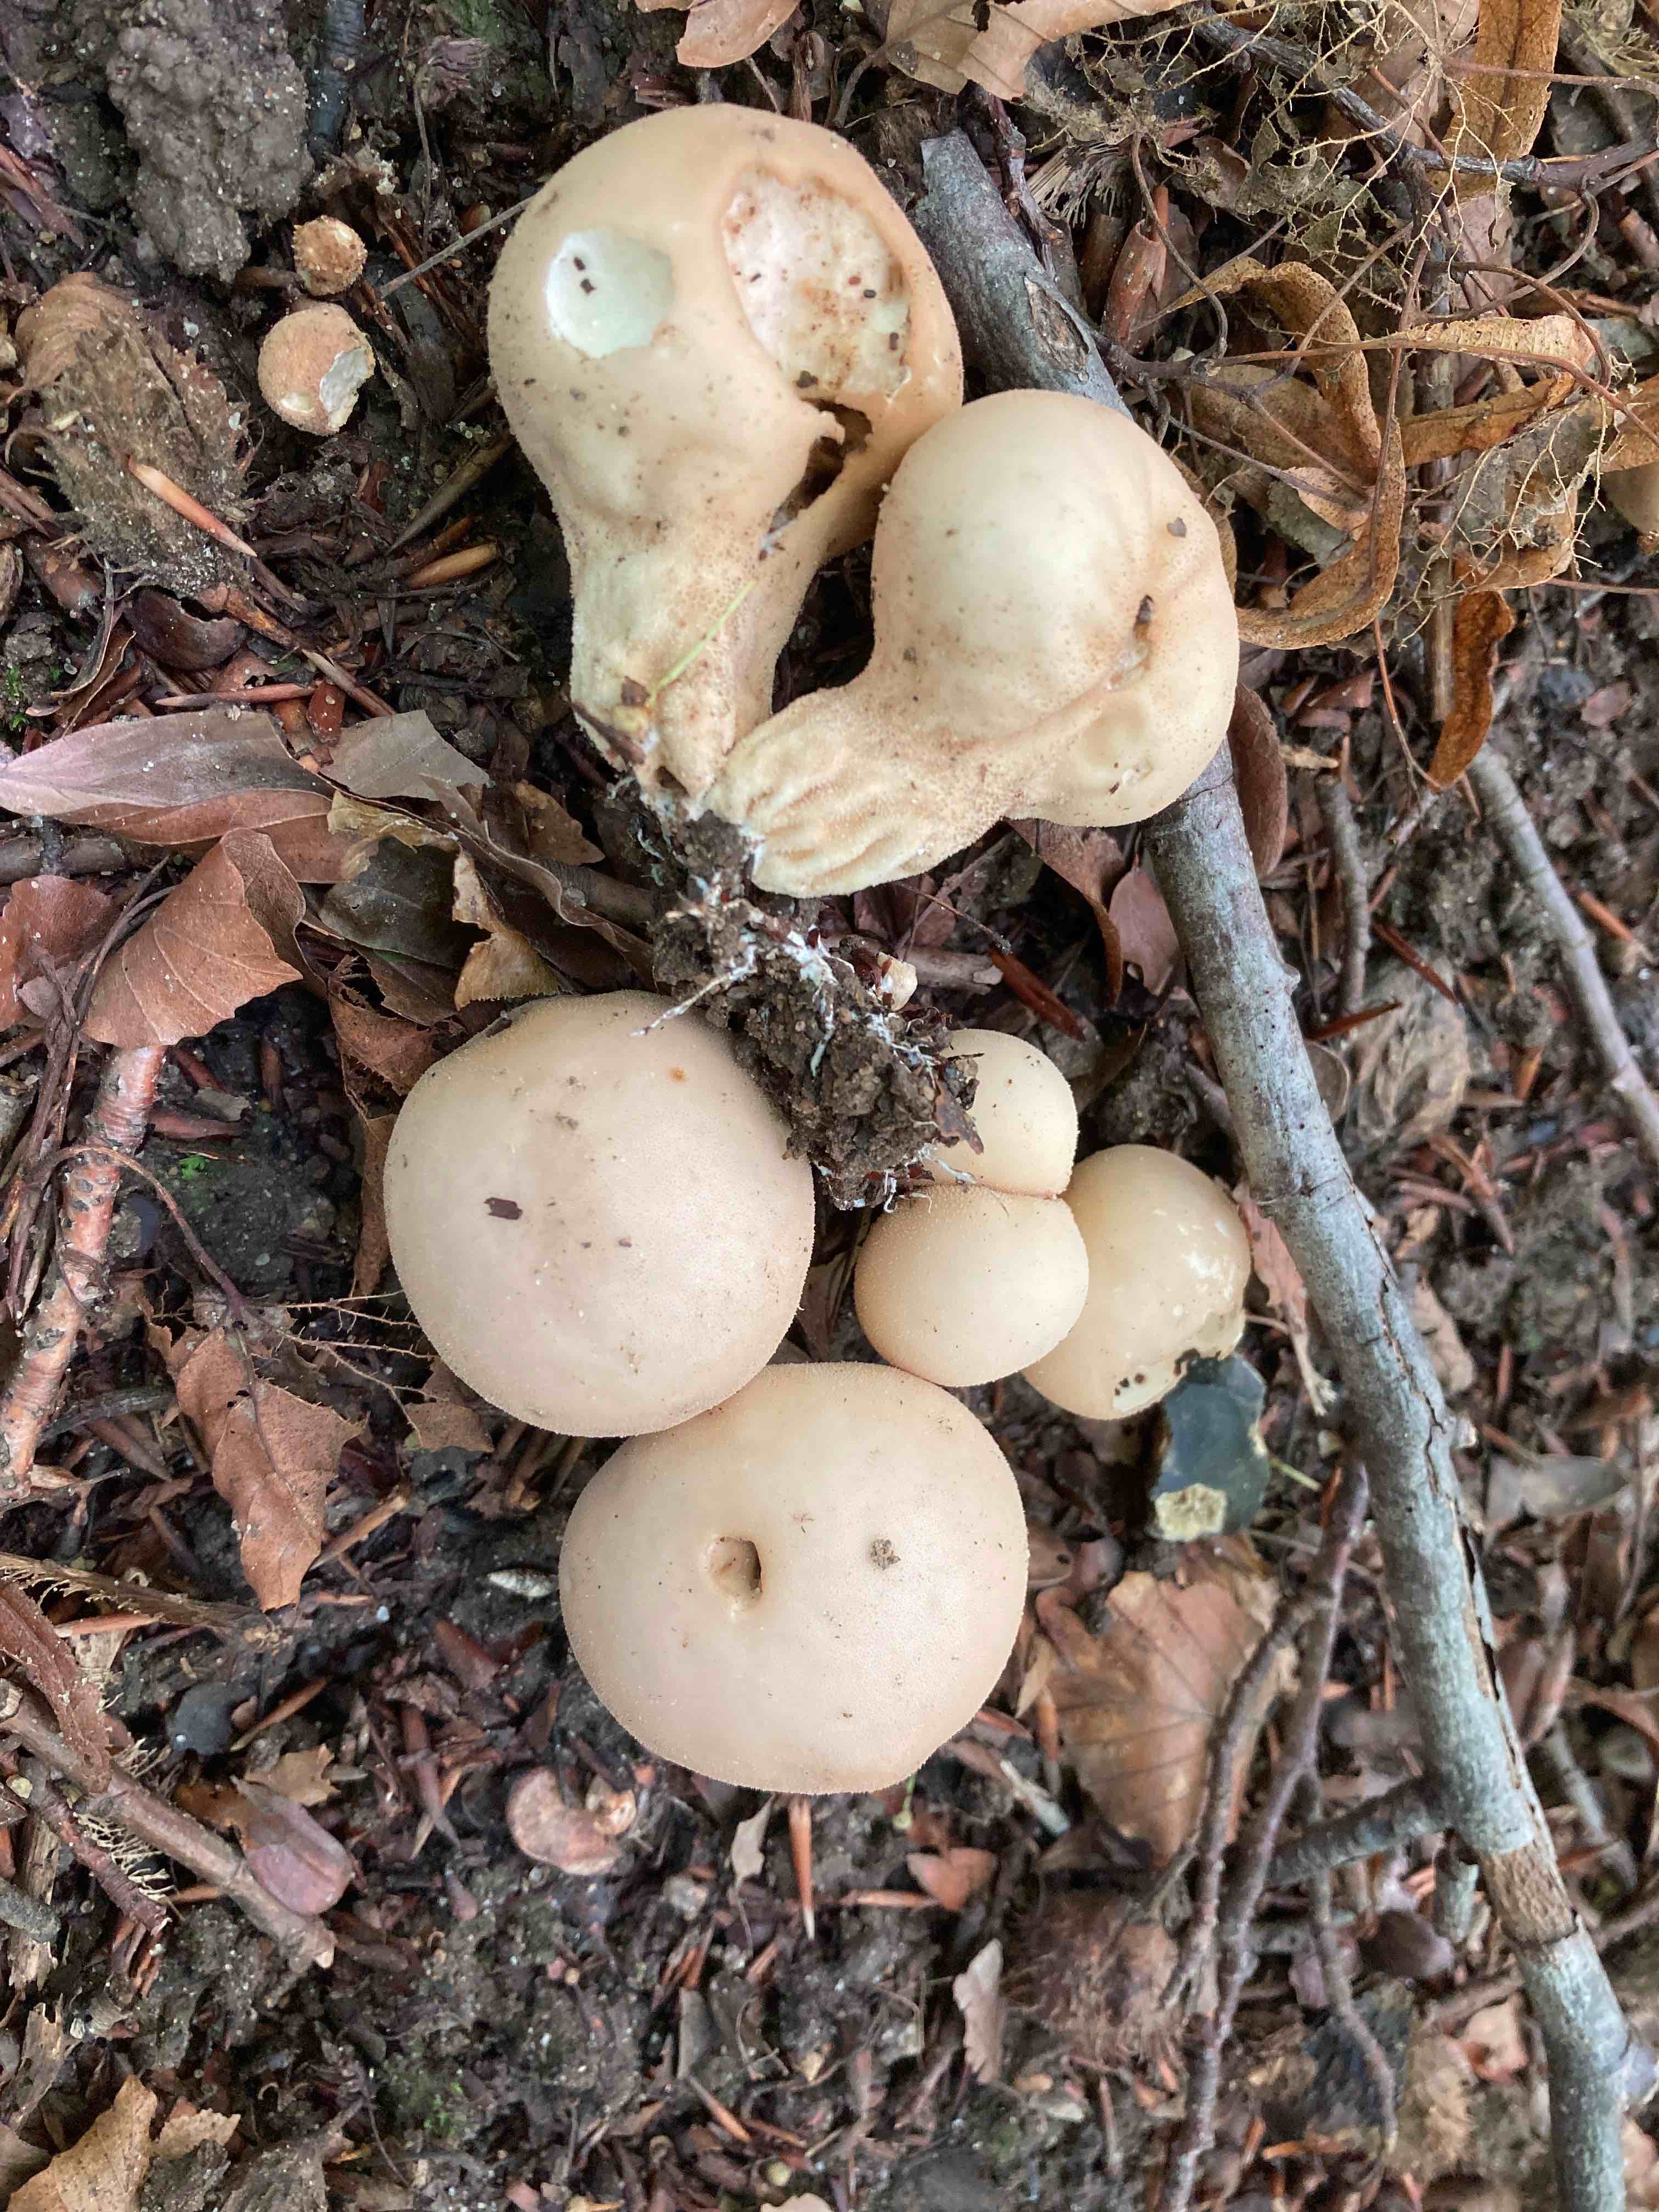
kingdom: Fungi
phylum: Basidiomycota
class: Agaricomycetes
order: Agaricales
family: Agaricaceae
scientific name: Agaricaceae
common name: champignonfamilien
